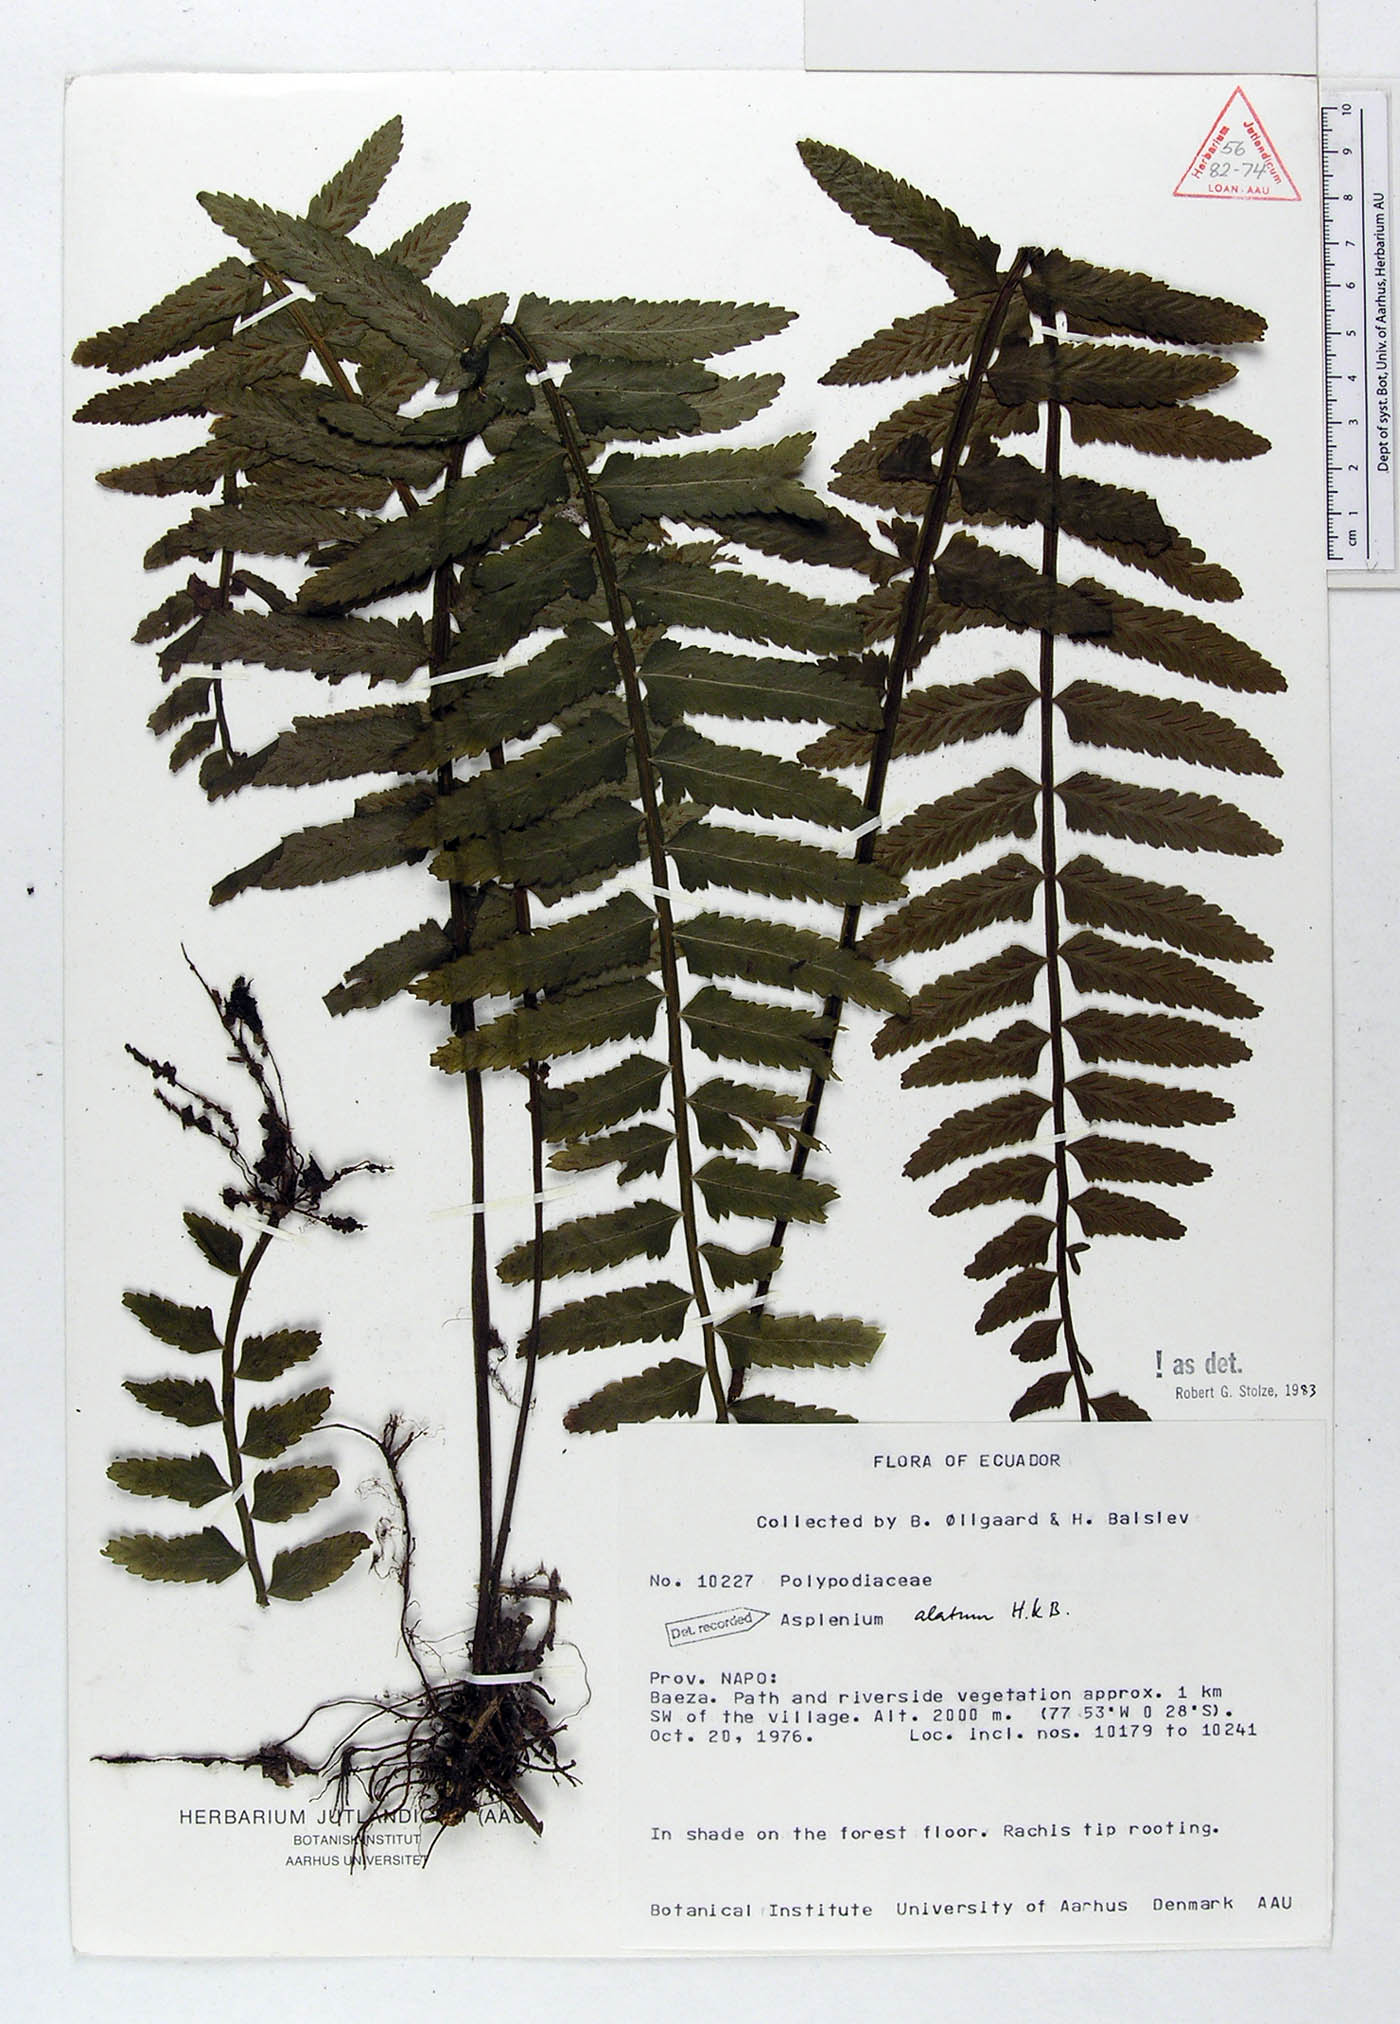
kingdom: Plantae
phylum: Tracheophyta
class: Polypodiopsida
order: Polypodiales
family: Aspleniaceae
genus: Asplenium
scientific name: Asplenium alatum
